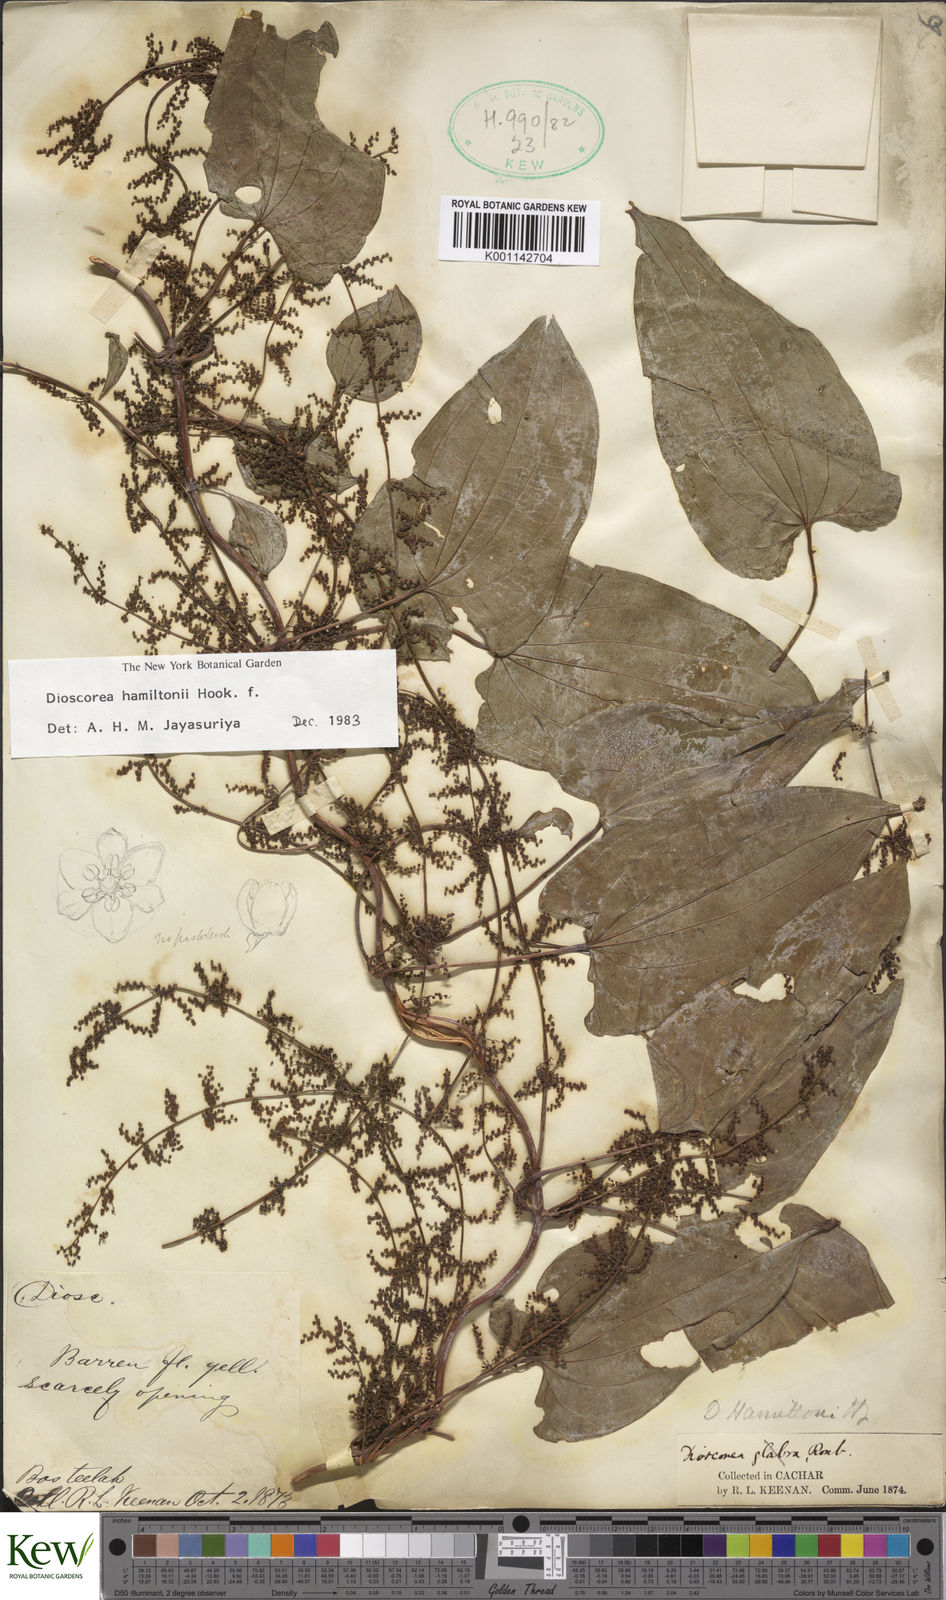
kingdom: Plantae
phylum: Tracheophyta
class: Liliopsida
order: Dioscoreales
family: Dioscoreaceae
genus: Dioscorea
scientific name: Dioscorea hamiltonii
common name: Mountain yam
